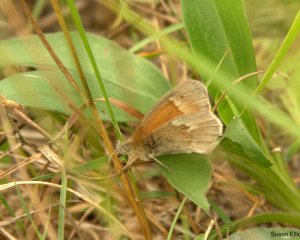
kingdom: Animalia
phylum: Arthropoda
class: Insecta
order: Lepidoptera
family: Nymphalidae
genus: Coenonympha
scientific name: Coenonympha tullia
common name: Large Heath
